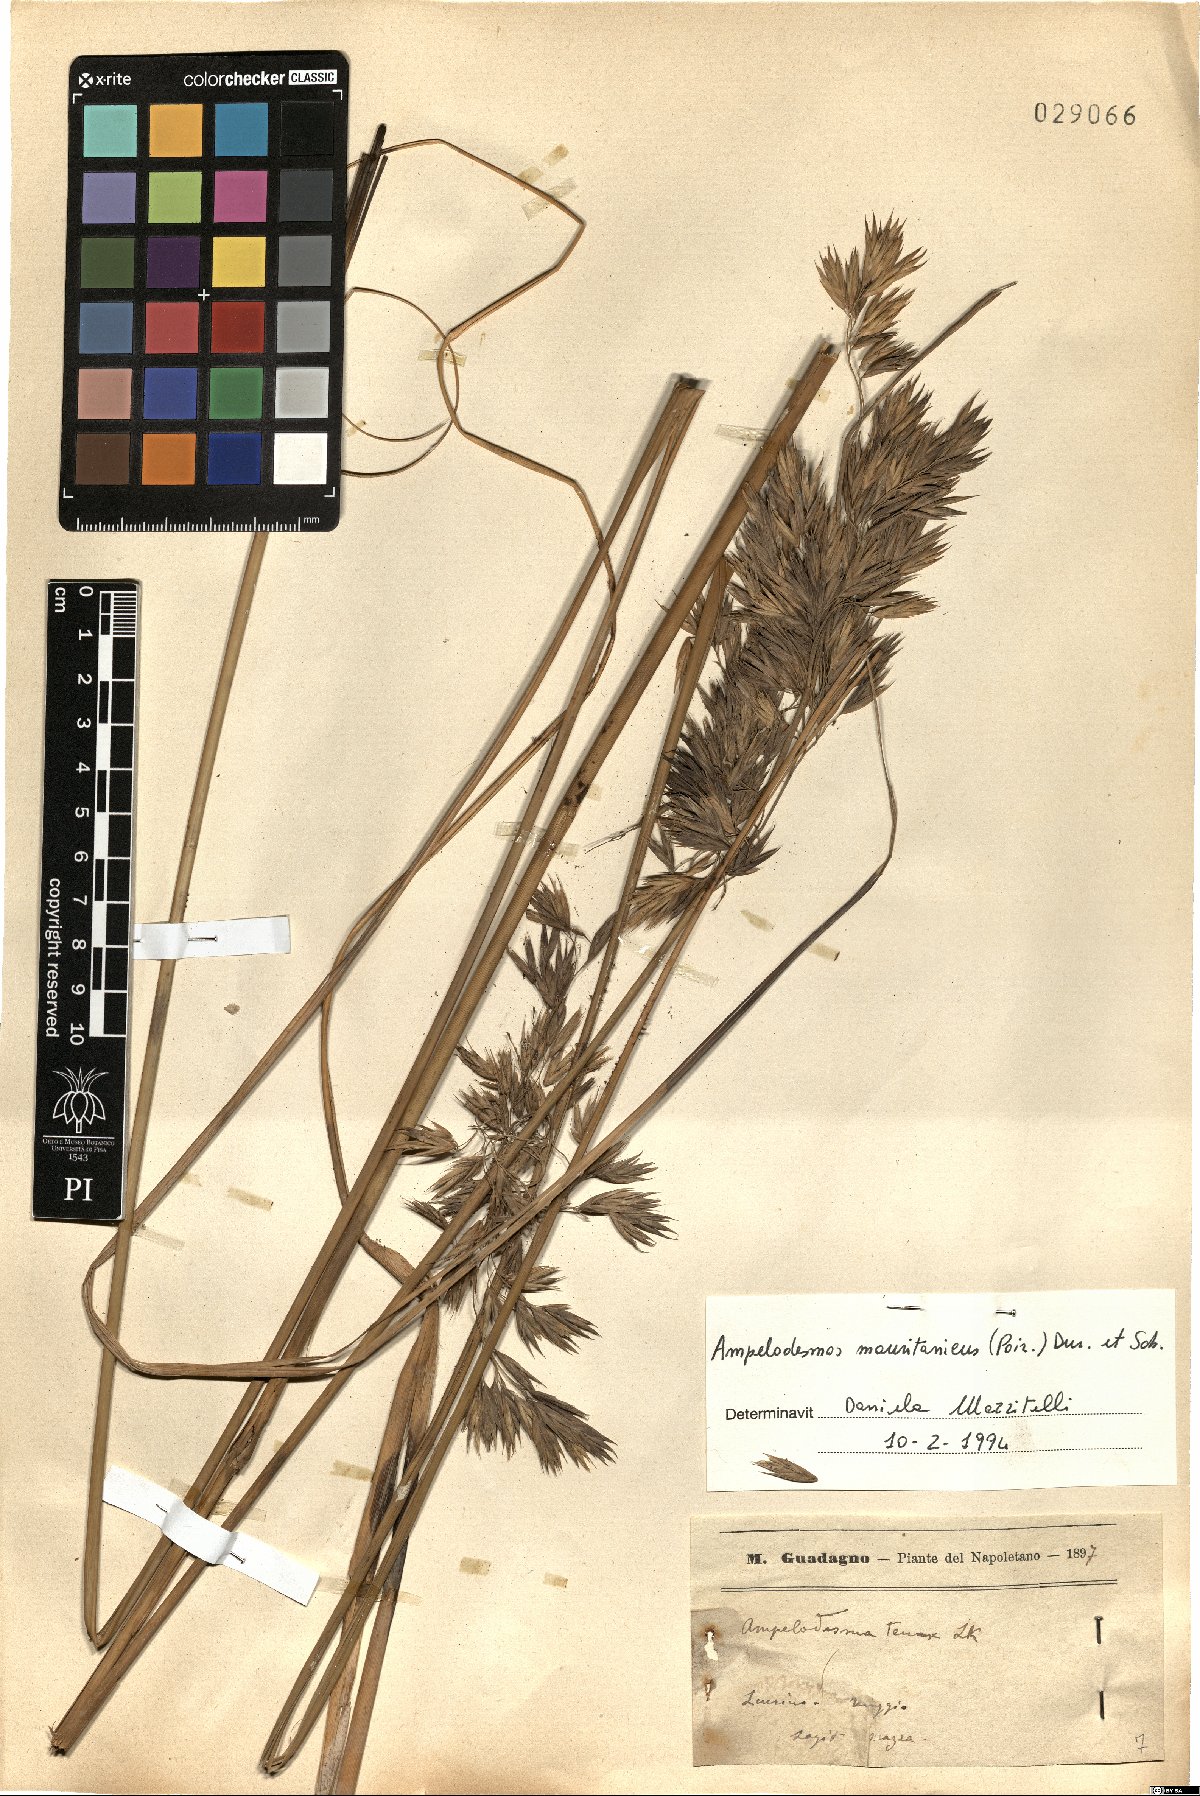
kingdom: Plantae
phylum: Tracheophyta
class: Liliopsida
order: Poales
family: Poaceae
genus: Ampelodesmos
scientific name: Ampelodesmos mauritanicus
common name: Mauritanian grass
